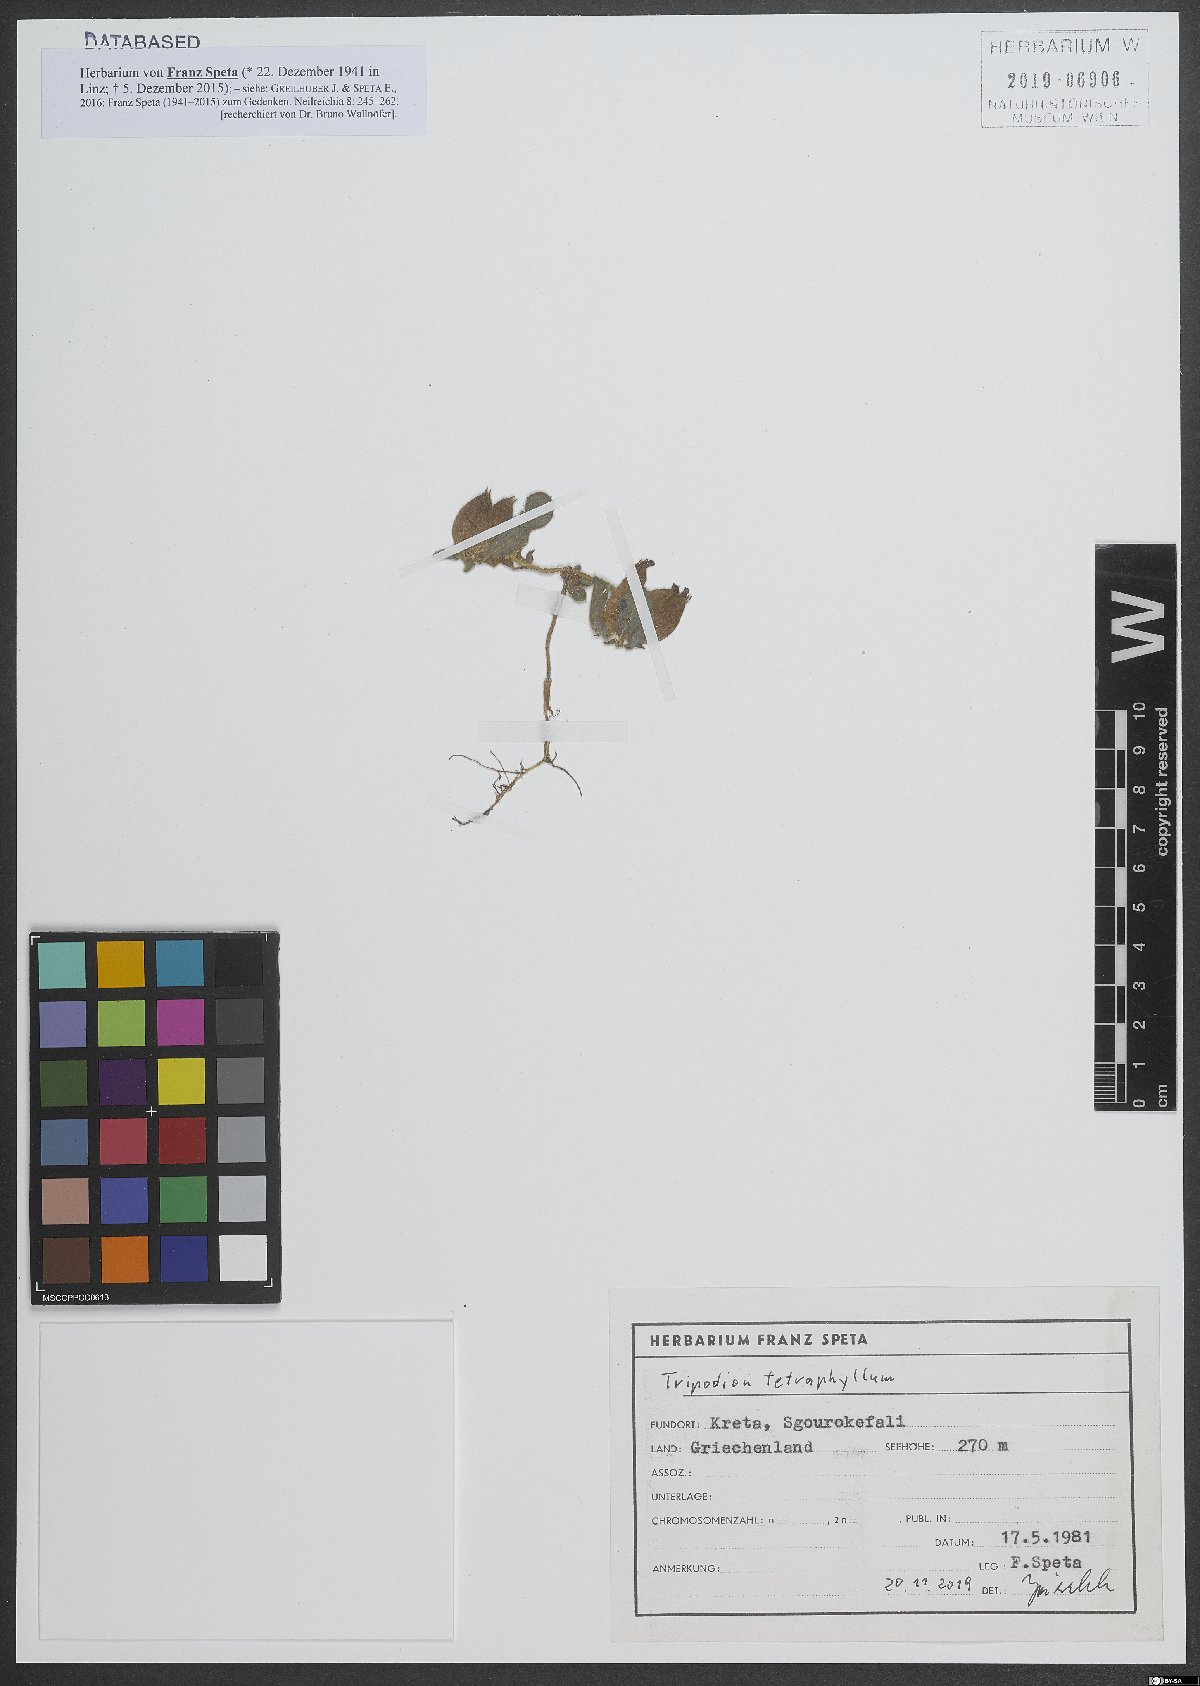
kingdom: Plantae
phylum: Tracheophyta
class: Magnoliopsida
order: Fabales
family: Fabaceae
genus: Tripodion
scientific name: Tripodion tetraphyllum
